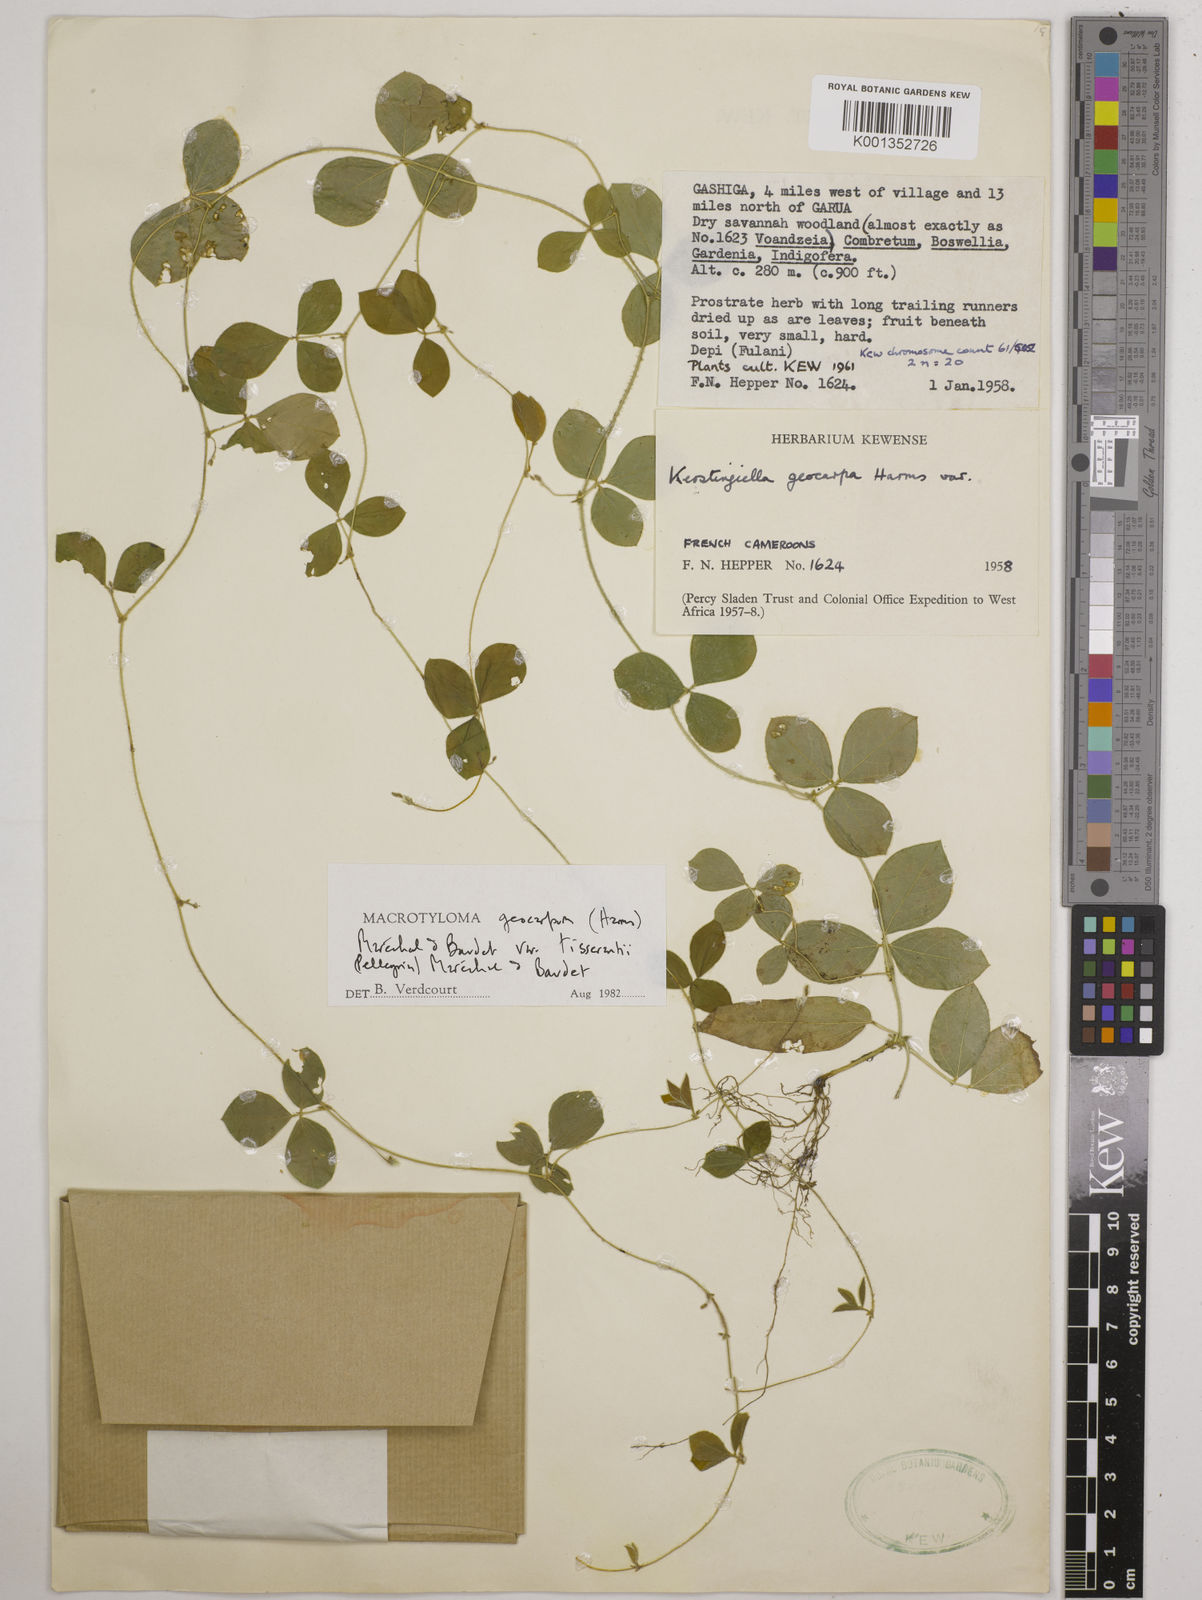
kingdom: Plantae
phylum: Tracheophyta
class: Magnoliopsida
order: Fabales
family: Fabaceae
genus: Macrotyloma
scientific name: Macrotyloma geocarpum
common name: Ground-bean
